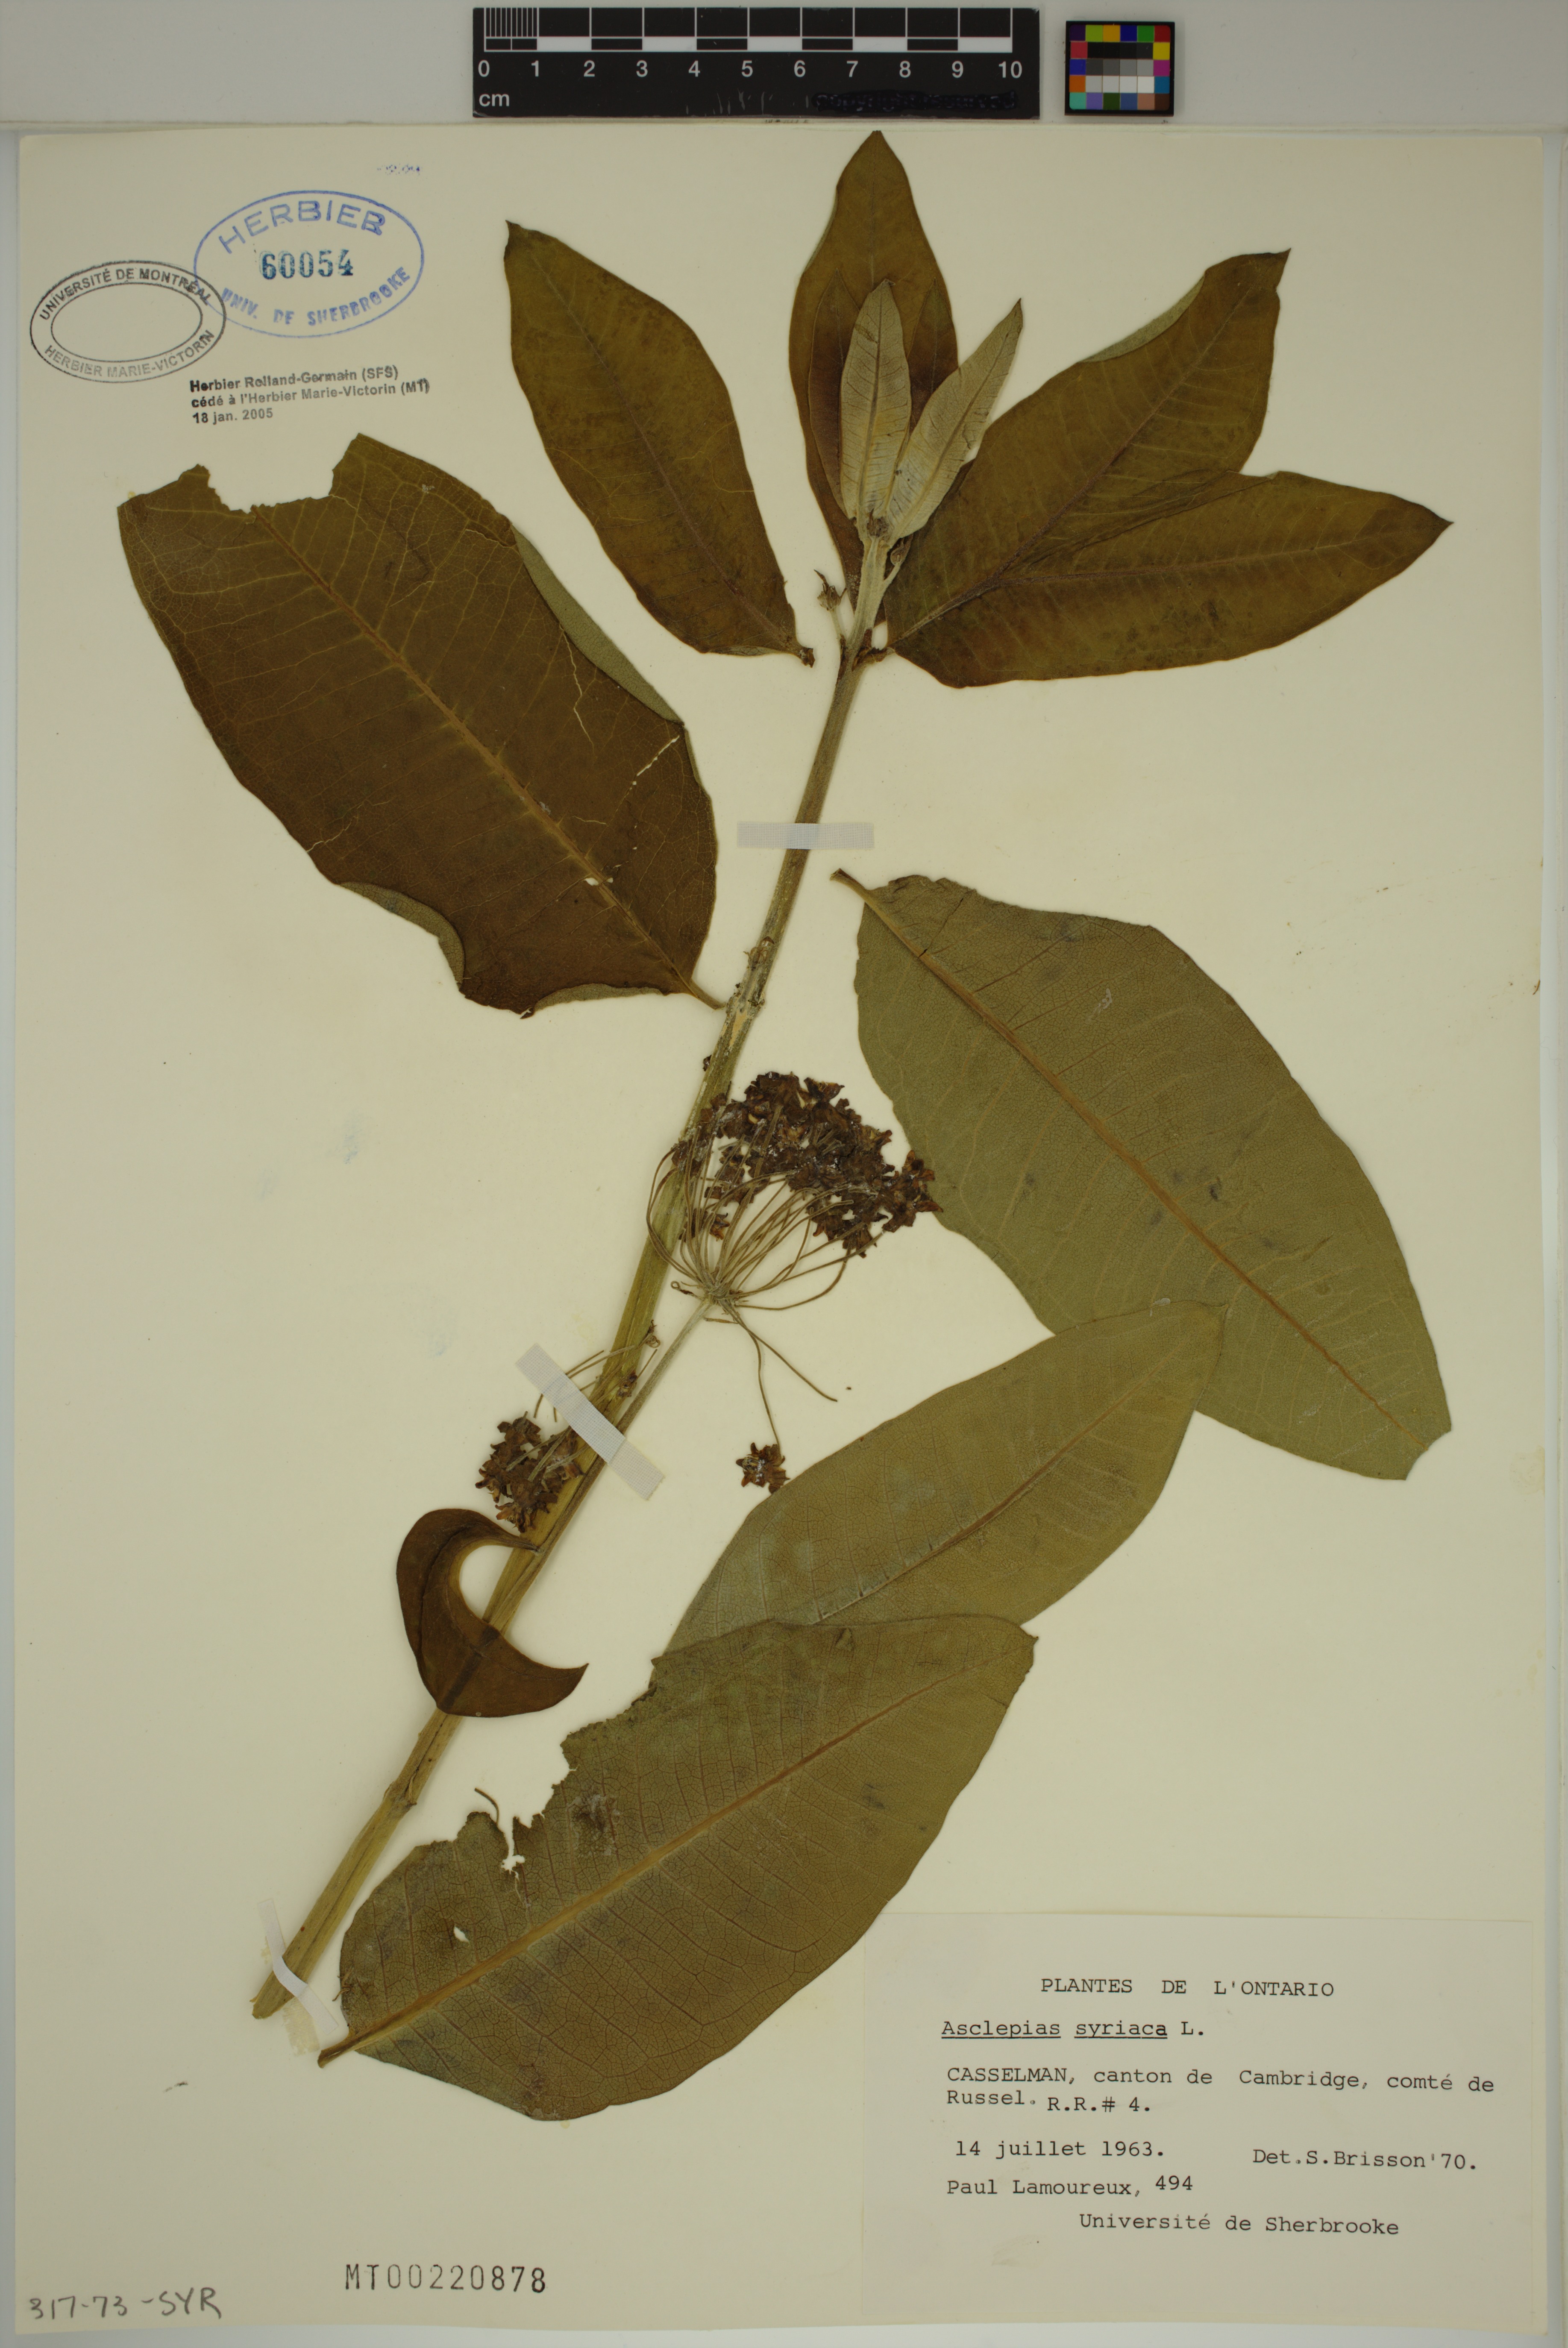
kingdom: Plantae
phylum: Tracheophyta
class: Magnoliopsida
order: Gentianales
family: Apocynaceae
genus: Asclepias
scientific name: Asclepias syriaca
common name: Common milkweed
